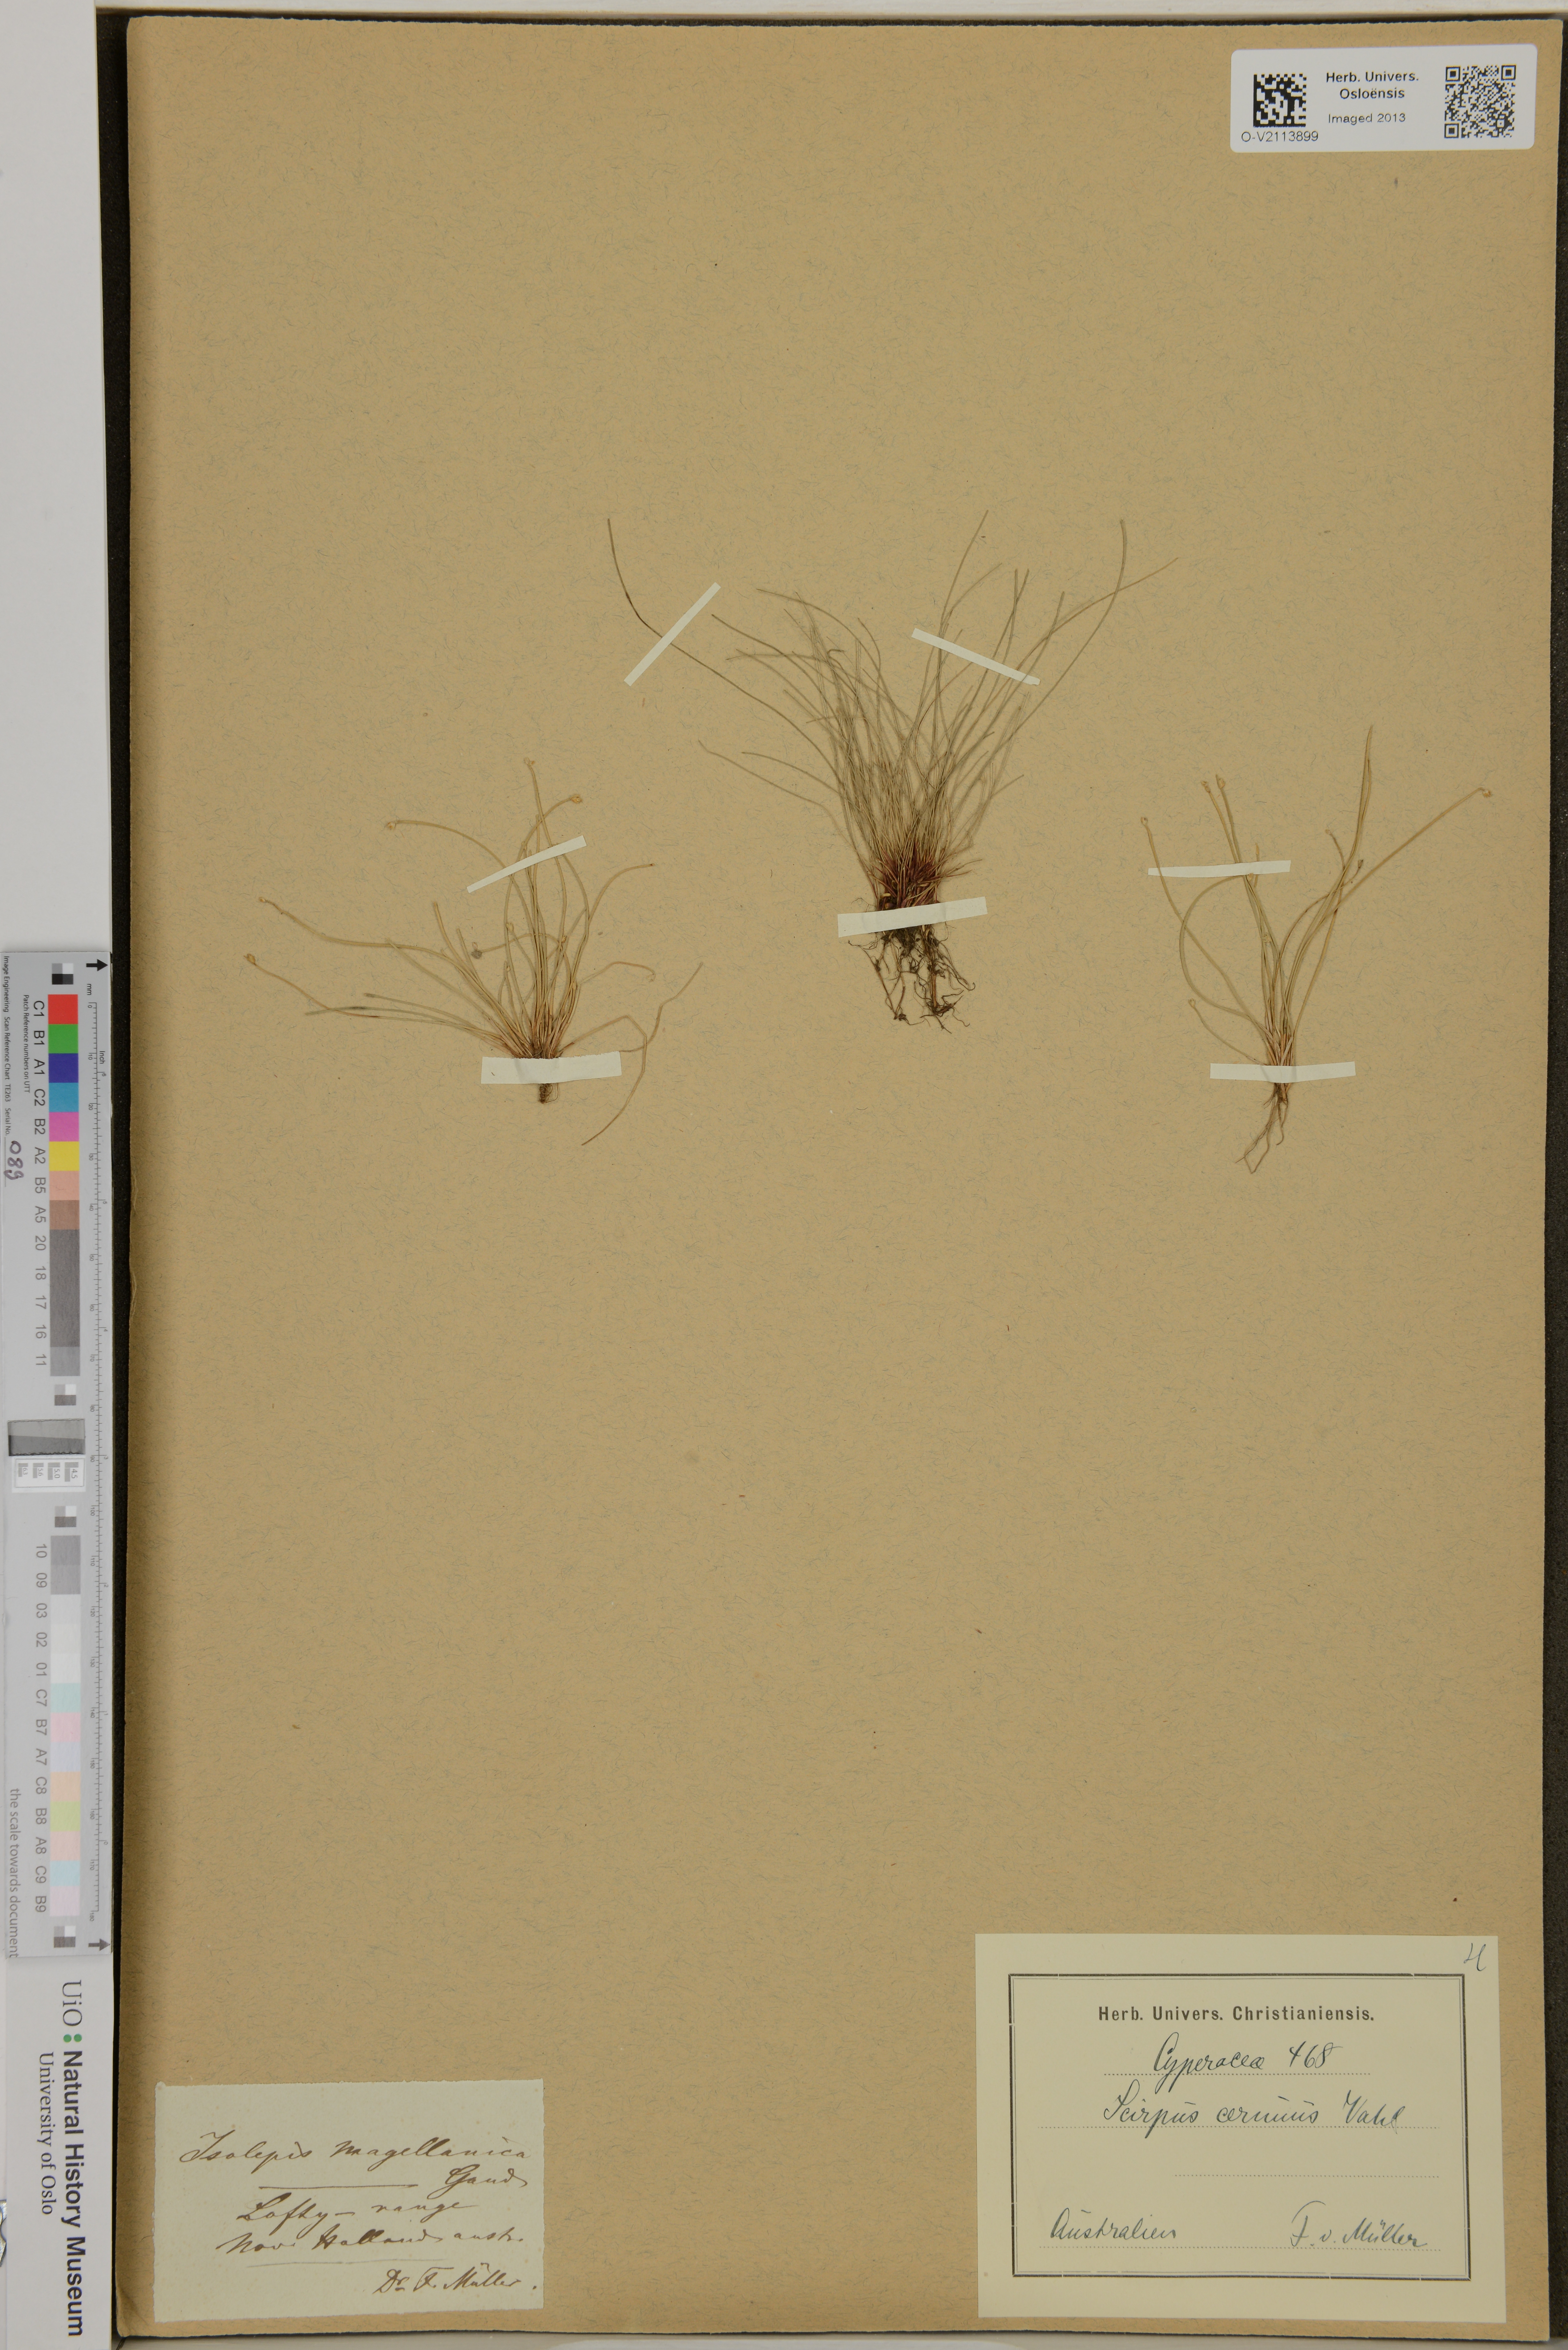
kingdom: Plantae
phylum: Tracheophyta
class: Liliopsida
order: Poales
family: Cyperaceae
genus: Isolepis
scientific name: Isolepis cernua
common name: Slender club-rush
